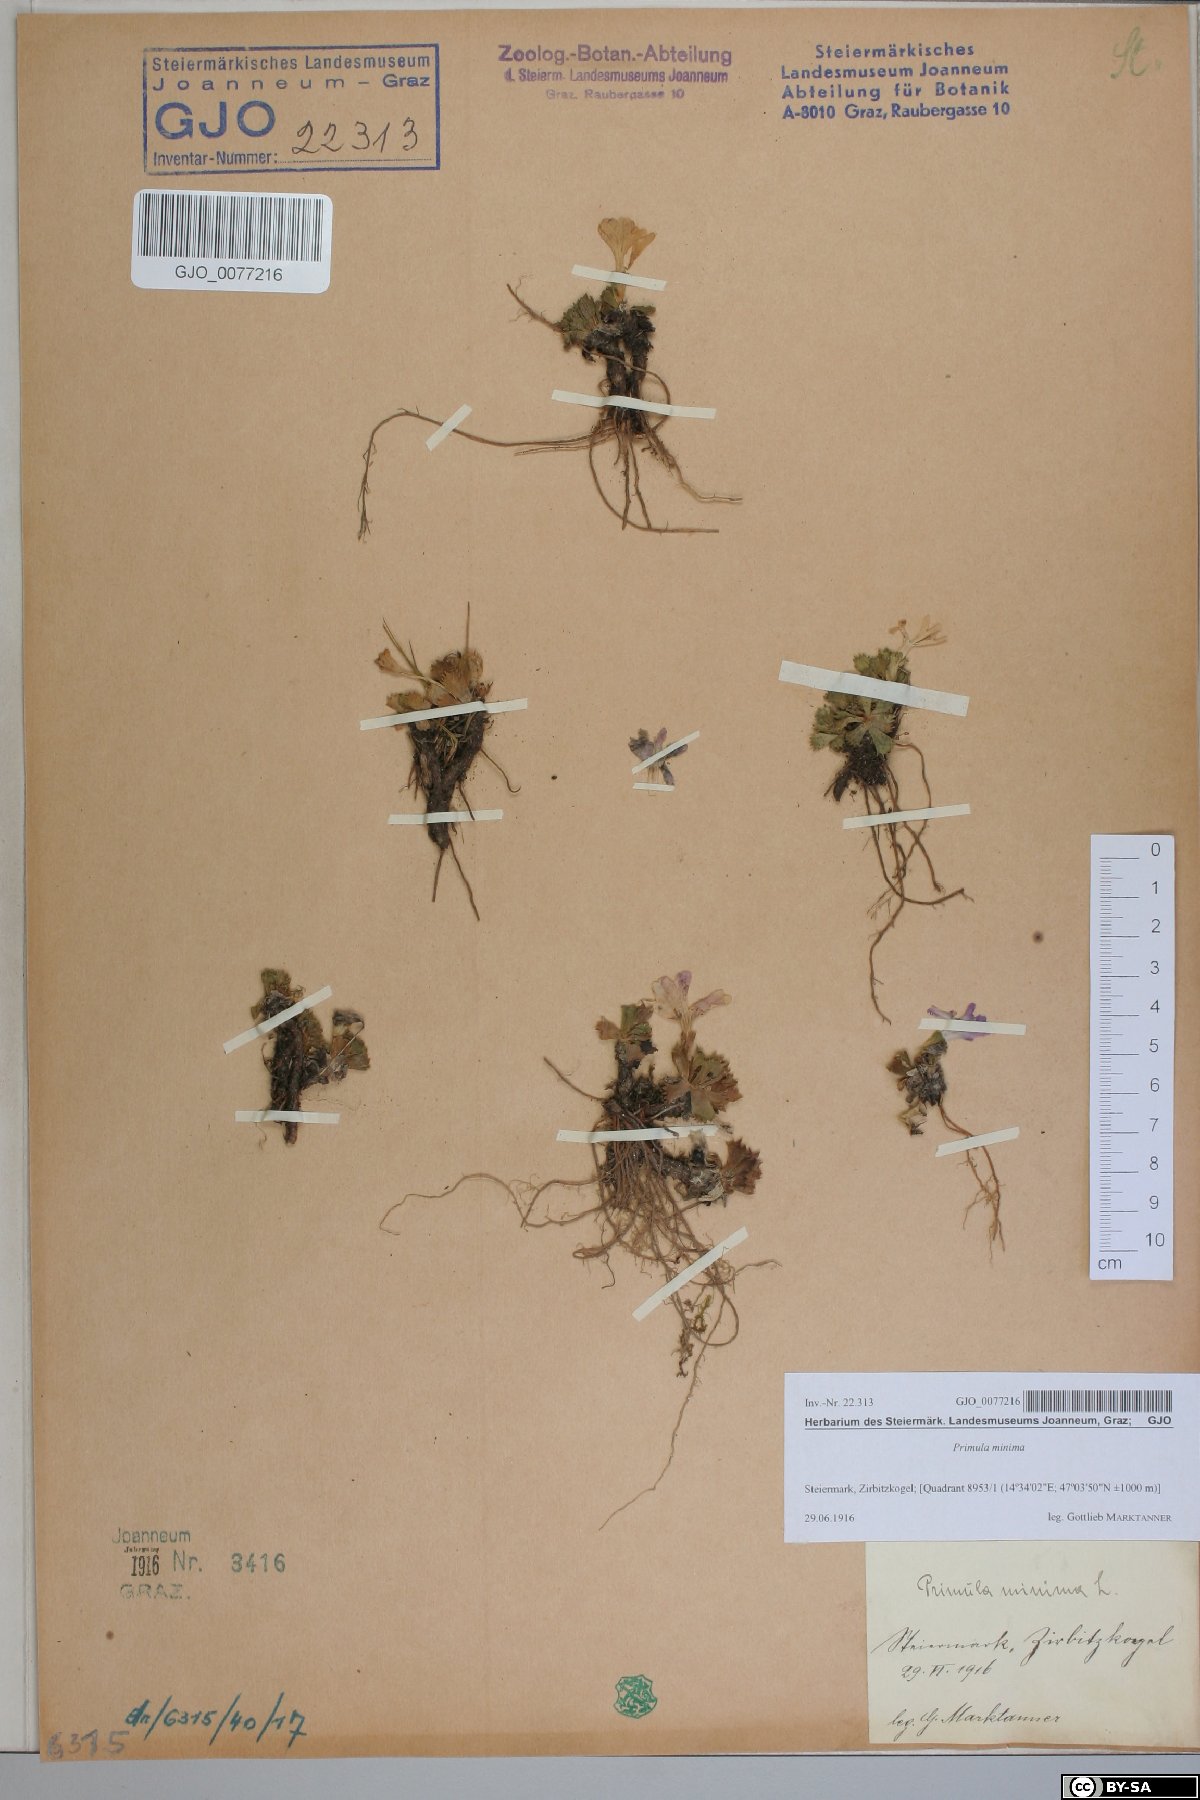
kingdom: Plantae
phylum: Tracheophyta
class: Magnoliopsida
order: Ericales
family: Primulaceae
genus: Primula
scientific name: Primula minima
